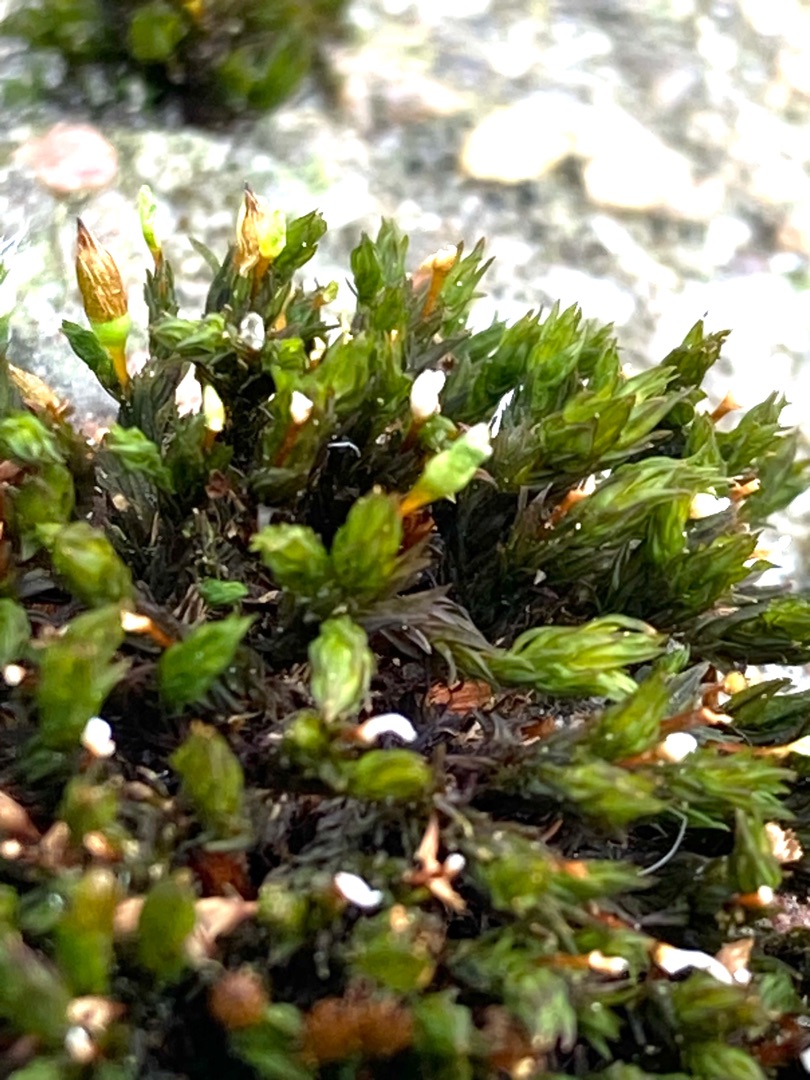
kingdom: Plantae
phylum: Bryophyta
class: Bryopsida
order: Orthotrichales
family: Orthotrichaceae
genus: Orthotrichum
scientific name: Orthotrichum anomalum
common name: Mørk furehætte
